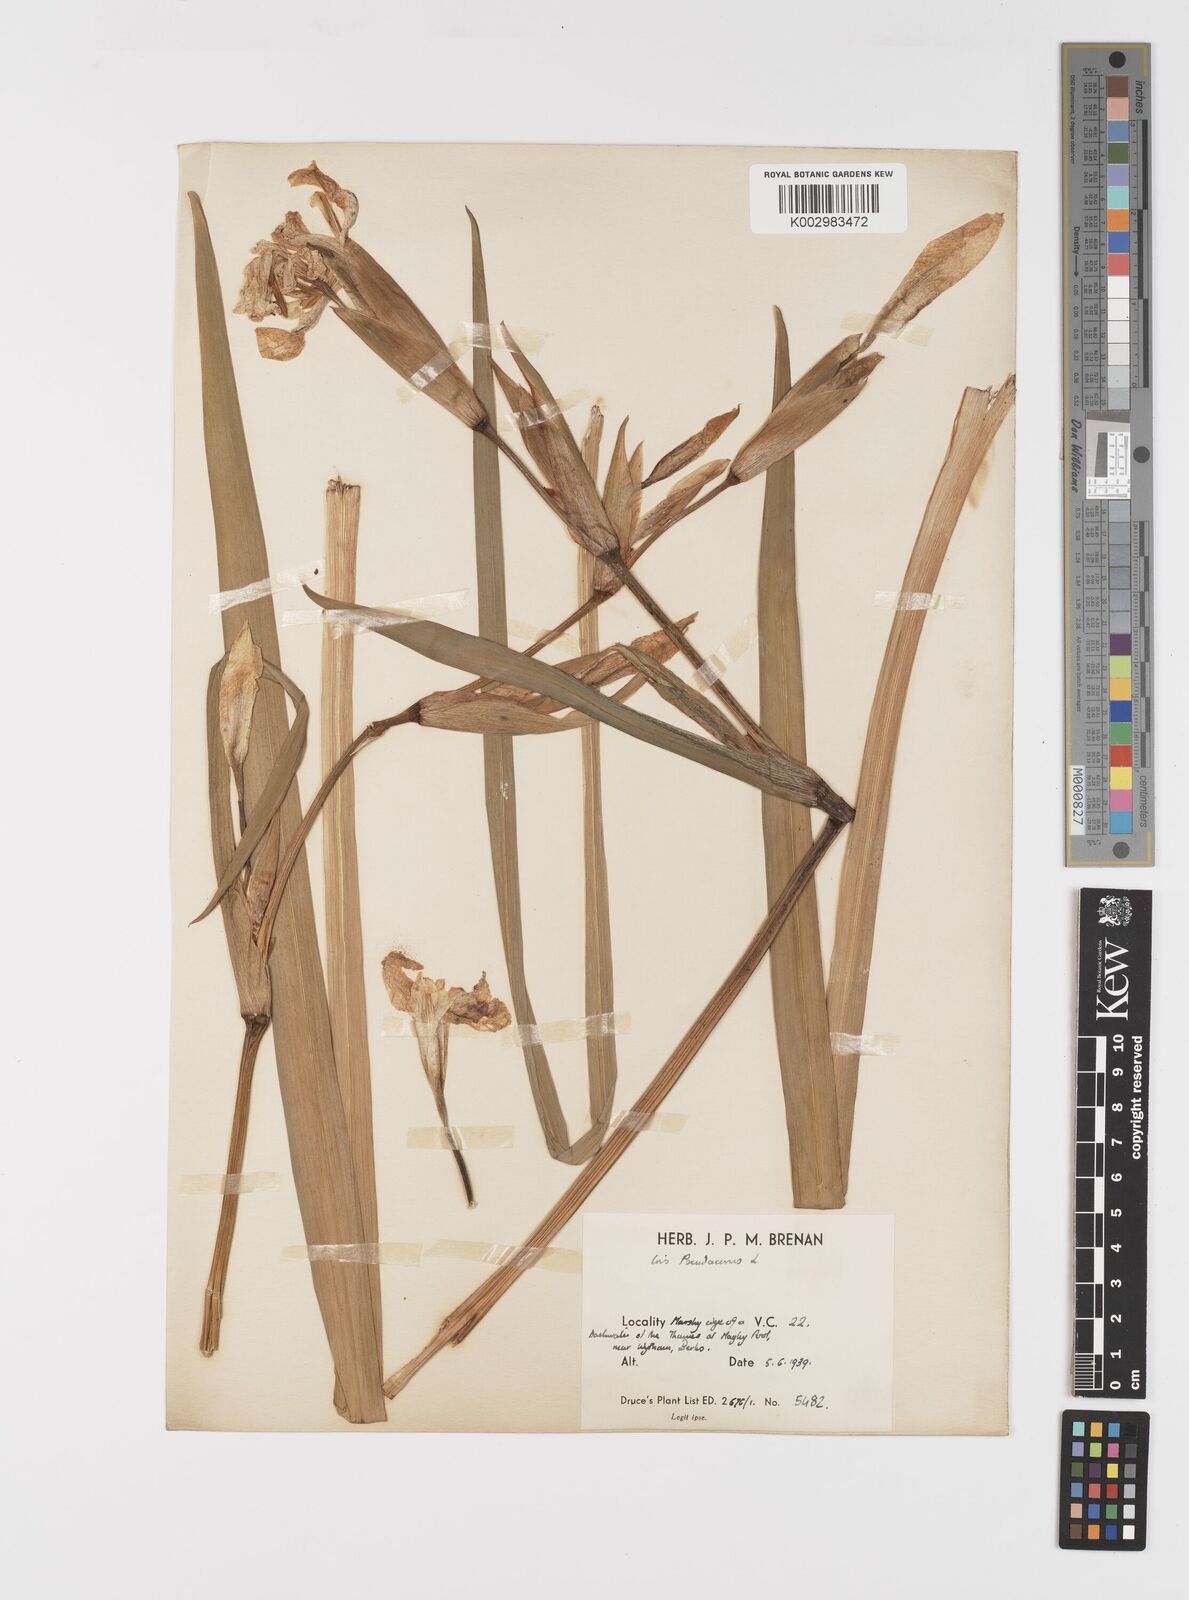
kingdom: Plantae
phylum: Tracheophyta
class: Liliopsida
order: Asparagales
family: Iridaceae
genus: Iris
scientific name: Iris pseudacorus
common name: Yellow flag
